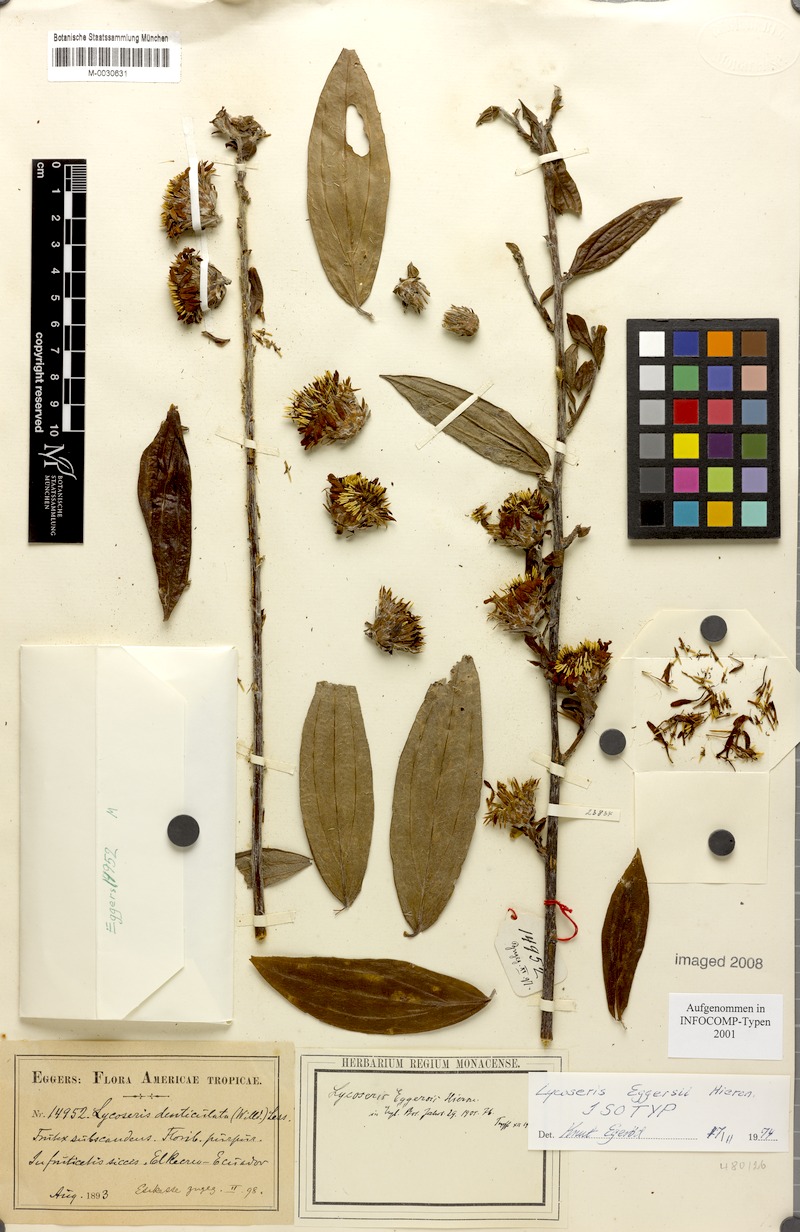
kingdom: Plantae
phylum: Tracheophyta
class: Magnoliopsida
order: Asterales
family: Asteraceae
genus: Lycoseris
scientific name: Lycoseris eggersii
